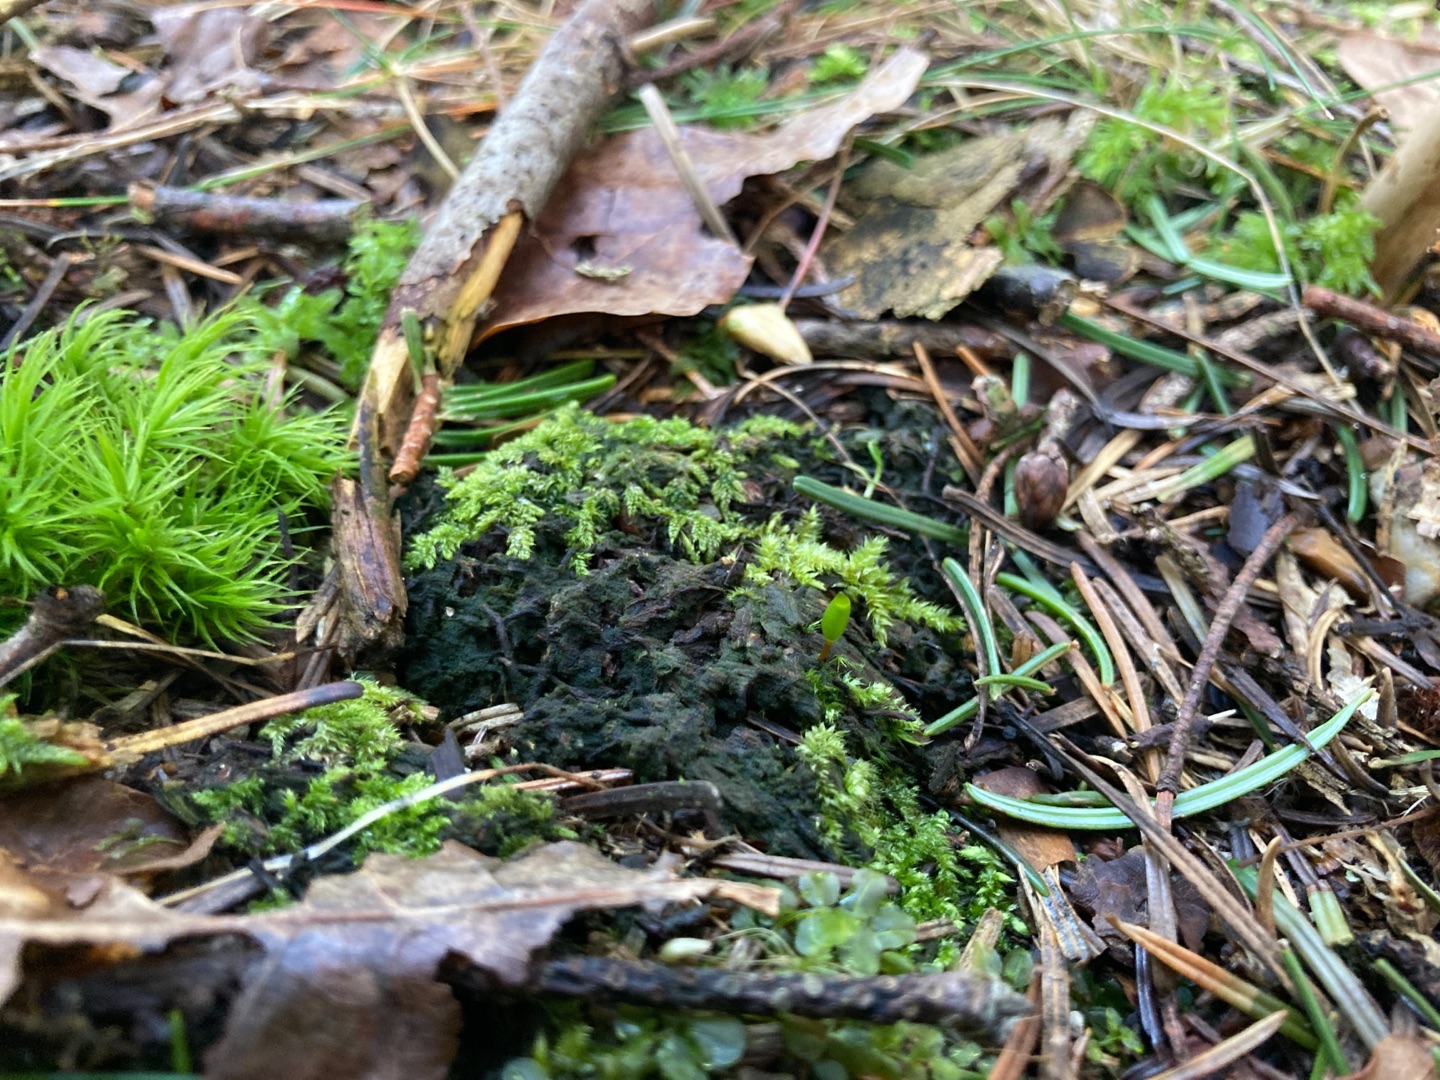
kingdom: Plantae
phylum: Bryophyta
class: Bryopsida
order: Buxbaumiales
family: Buxbaumiaceae
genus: Buxbaumia
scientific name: Buxbaumia viridis
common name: Grøn buxbaumia
